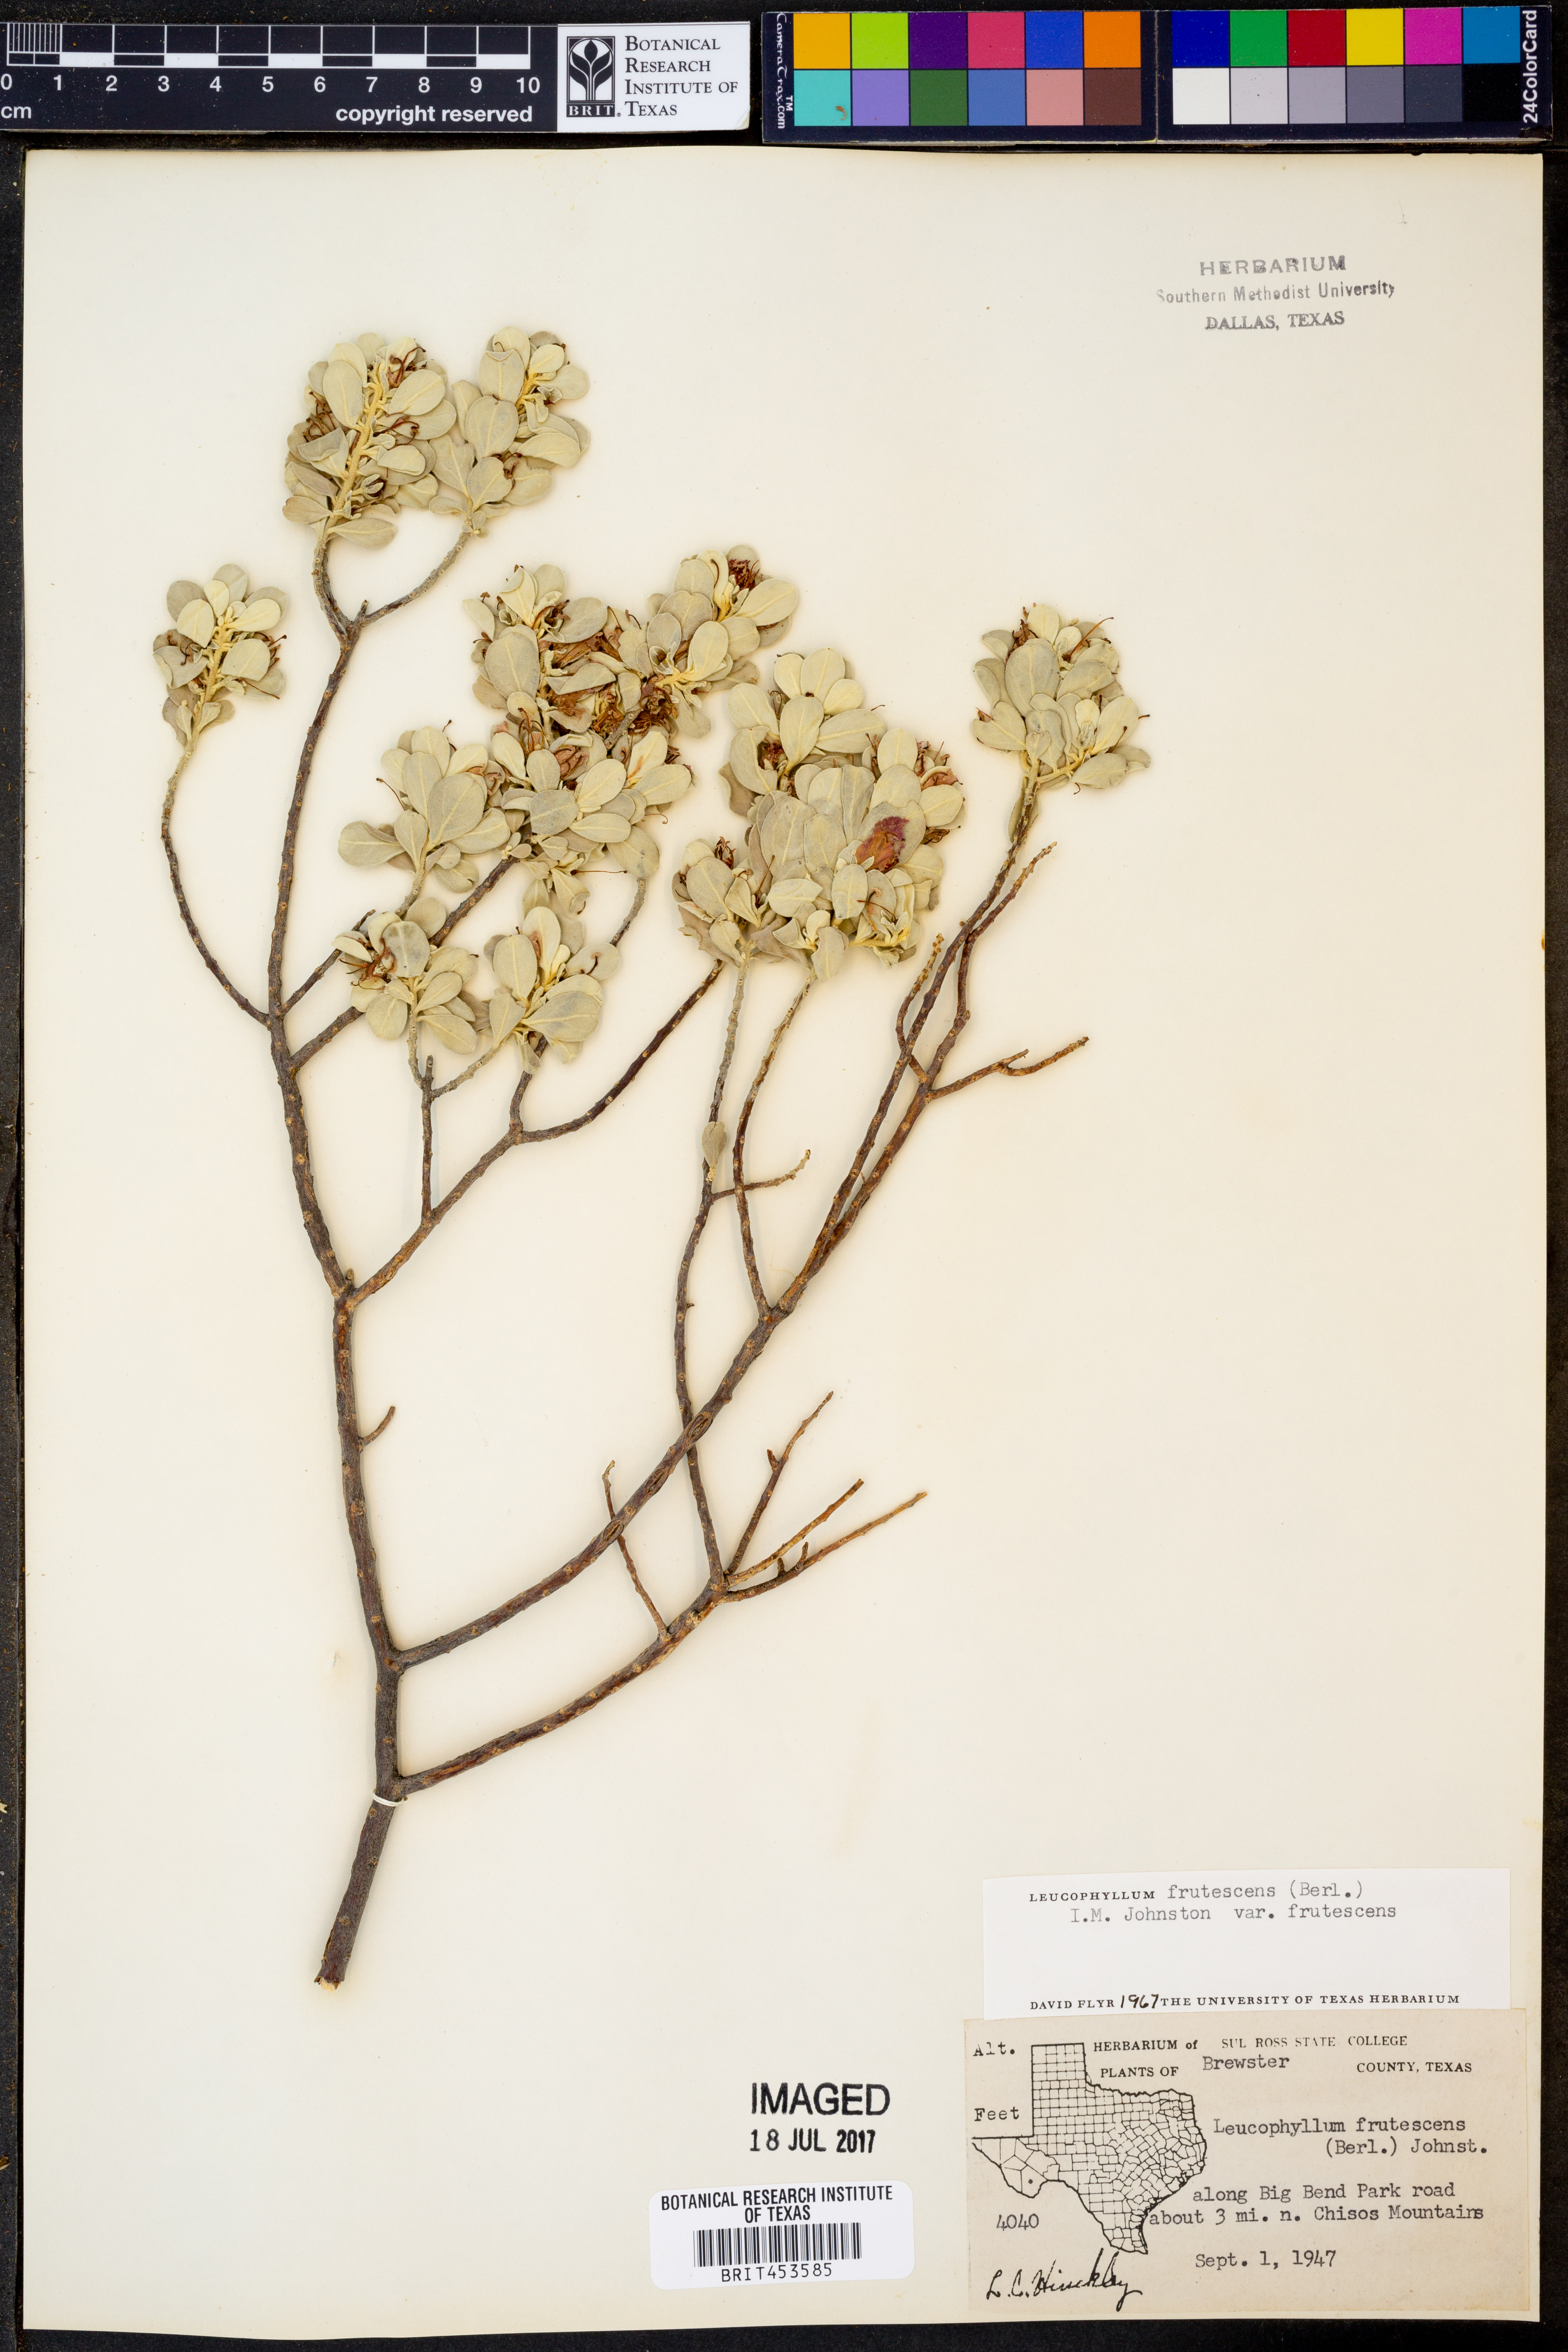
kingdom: Plantae
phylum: Tracheophyta
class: Magnoliopsida
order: Lamiales
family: Scrophulariaceae
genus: Leucophyllum
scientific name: Leucophyllum frutescens
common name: Texas silverleaf
